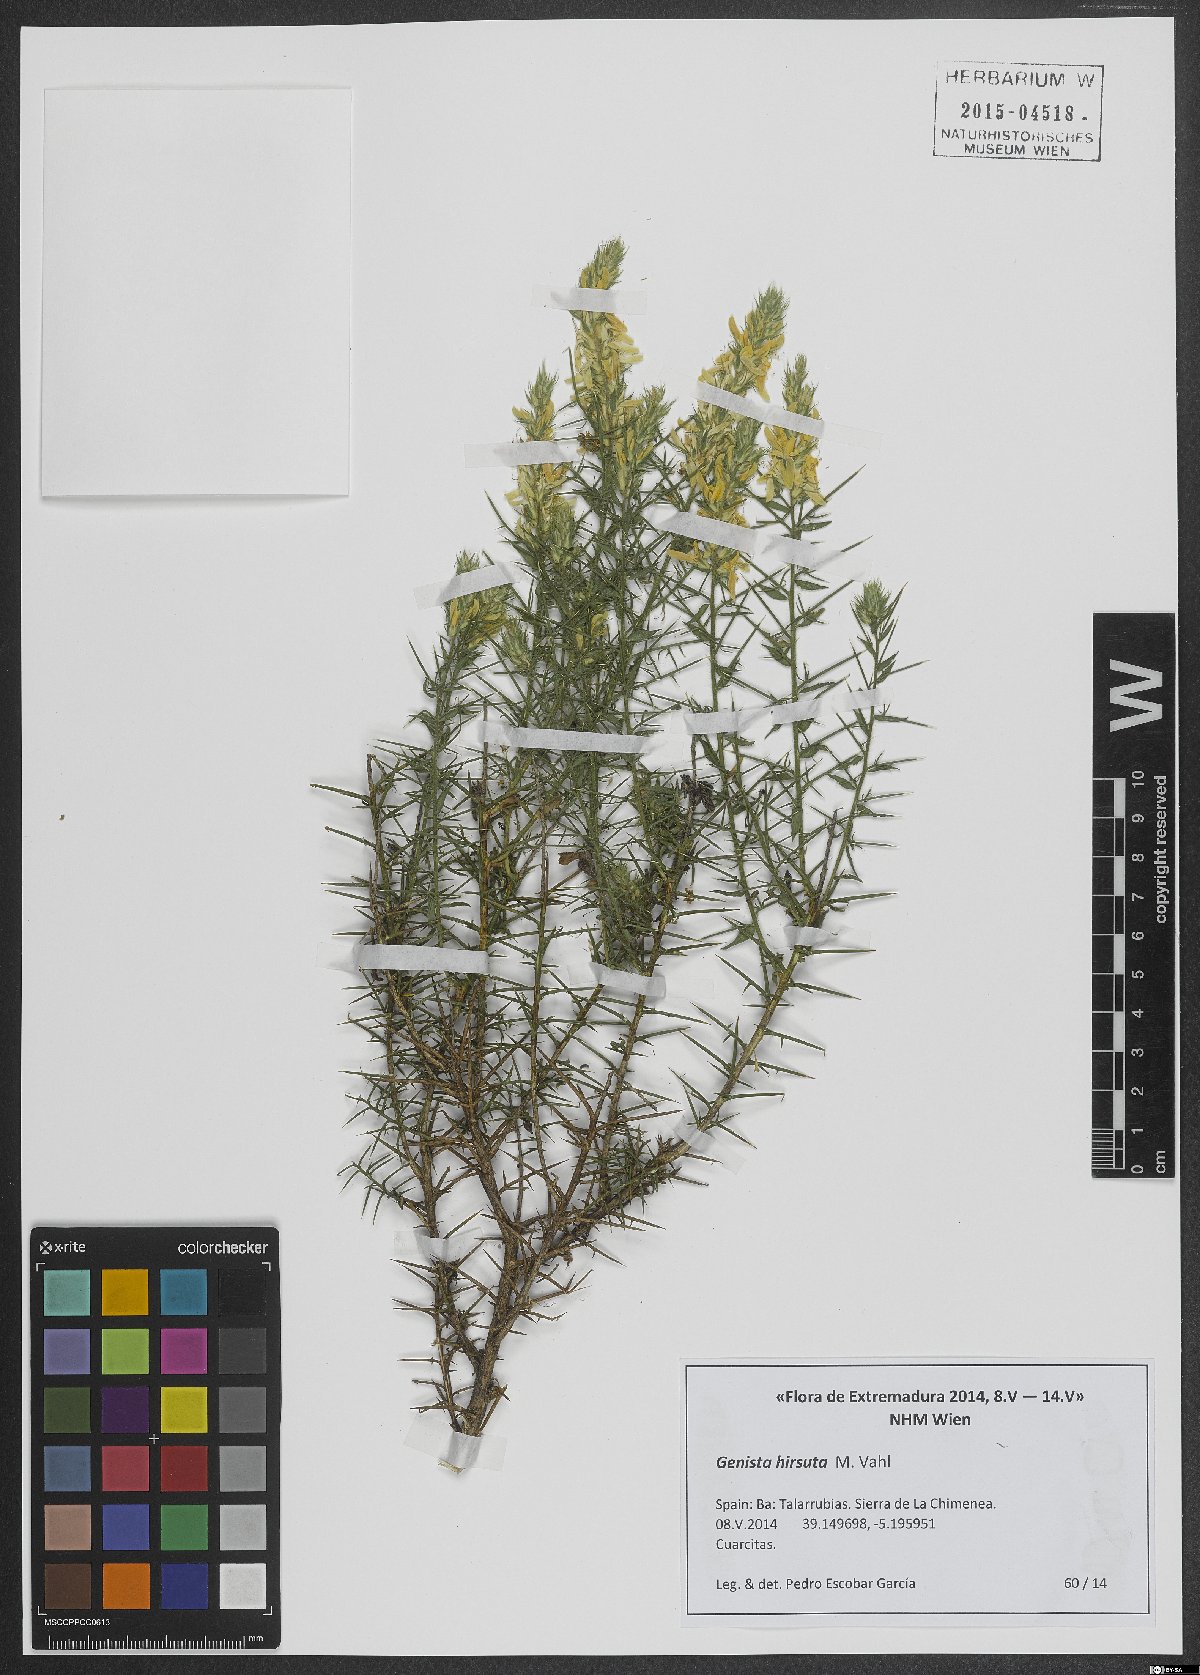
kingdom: Plantae
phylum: Tracheophyta
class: Magnoliopsida
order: Fabales
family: Fabaceae
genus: Genista
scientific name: Genista hirsuta
